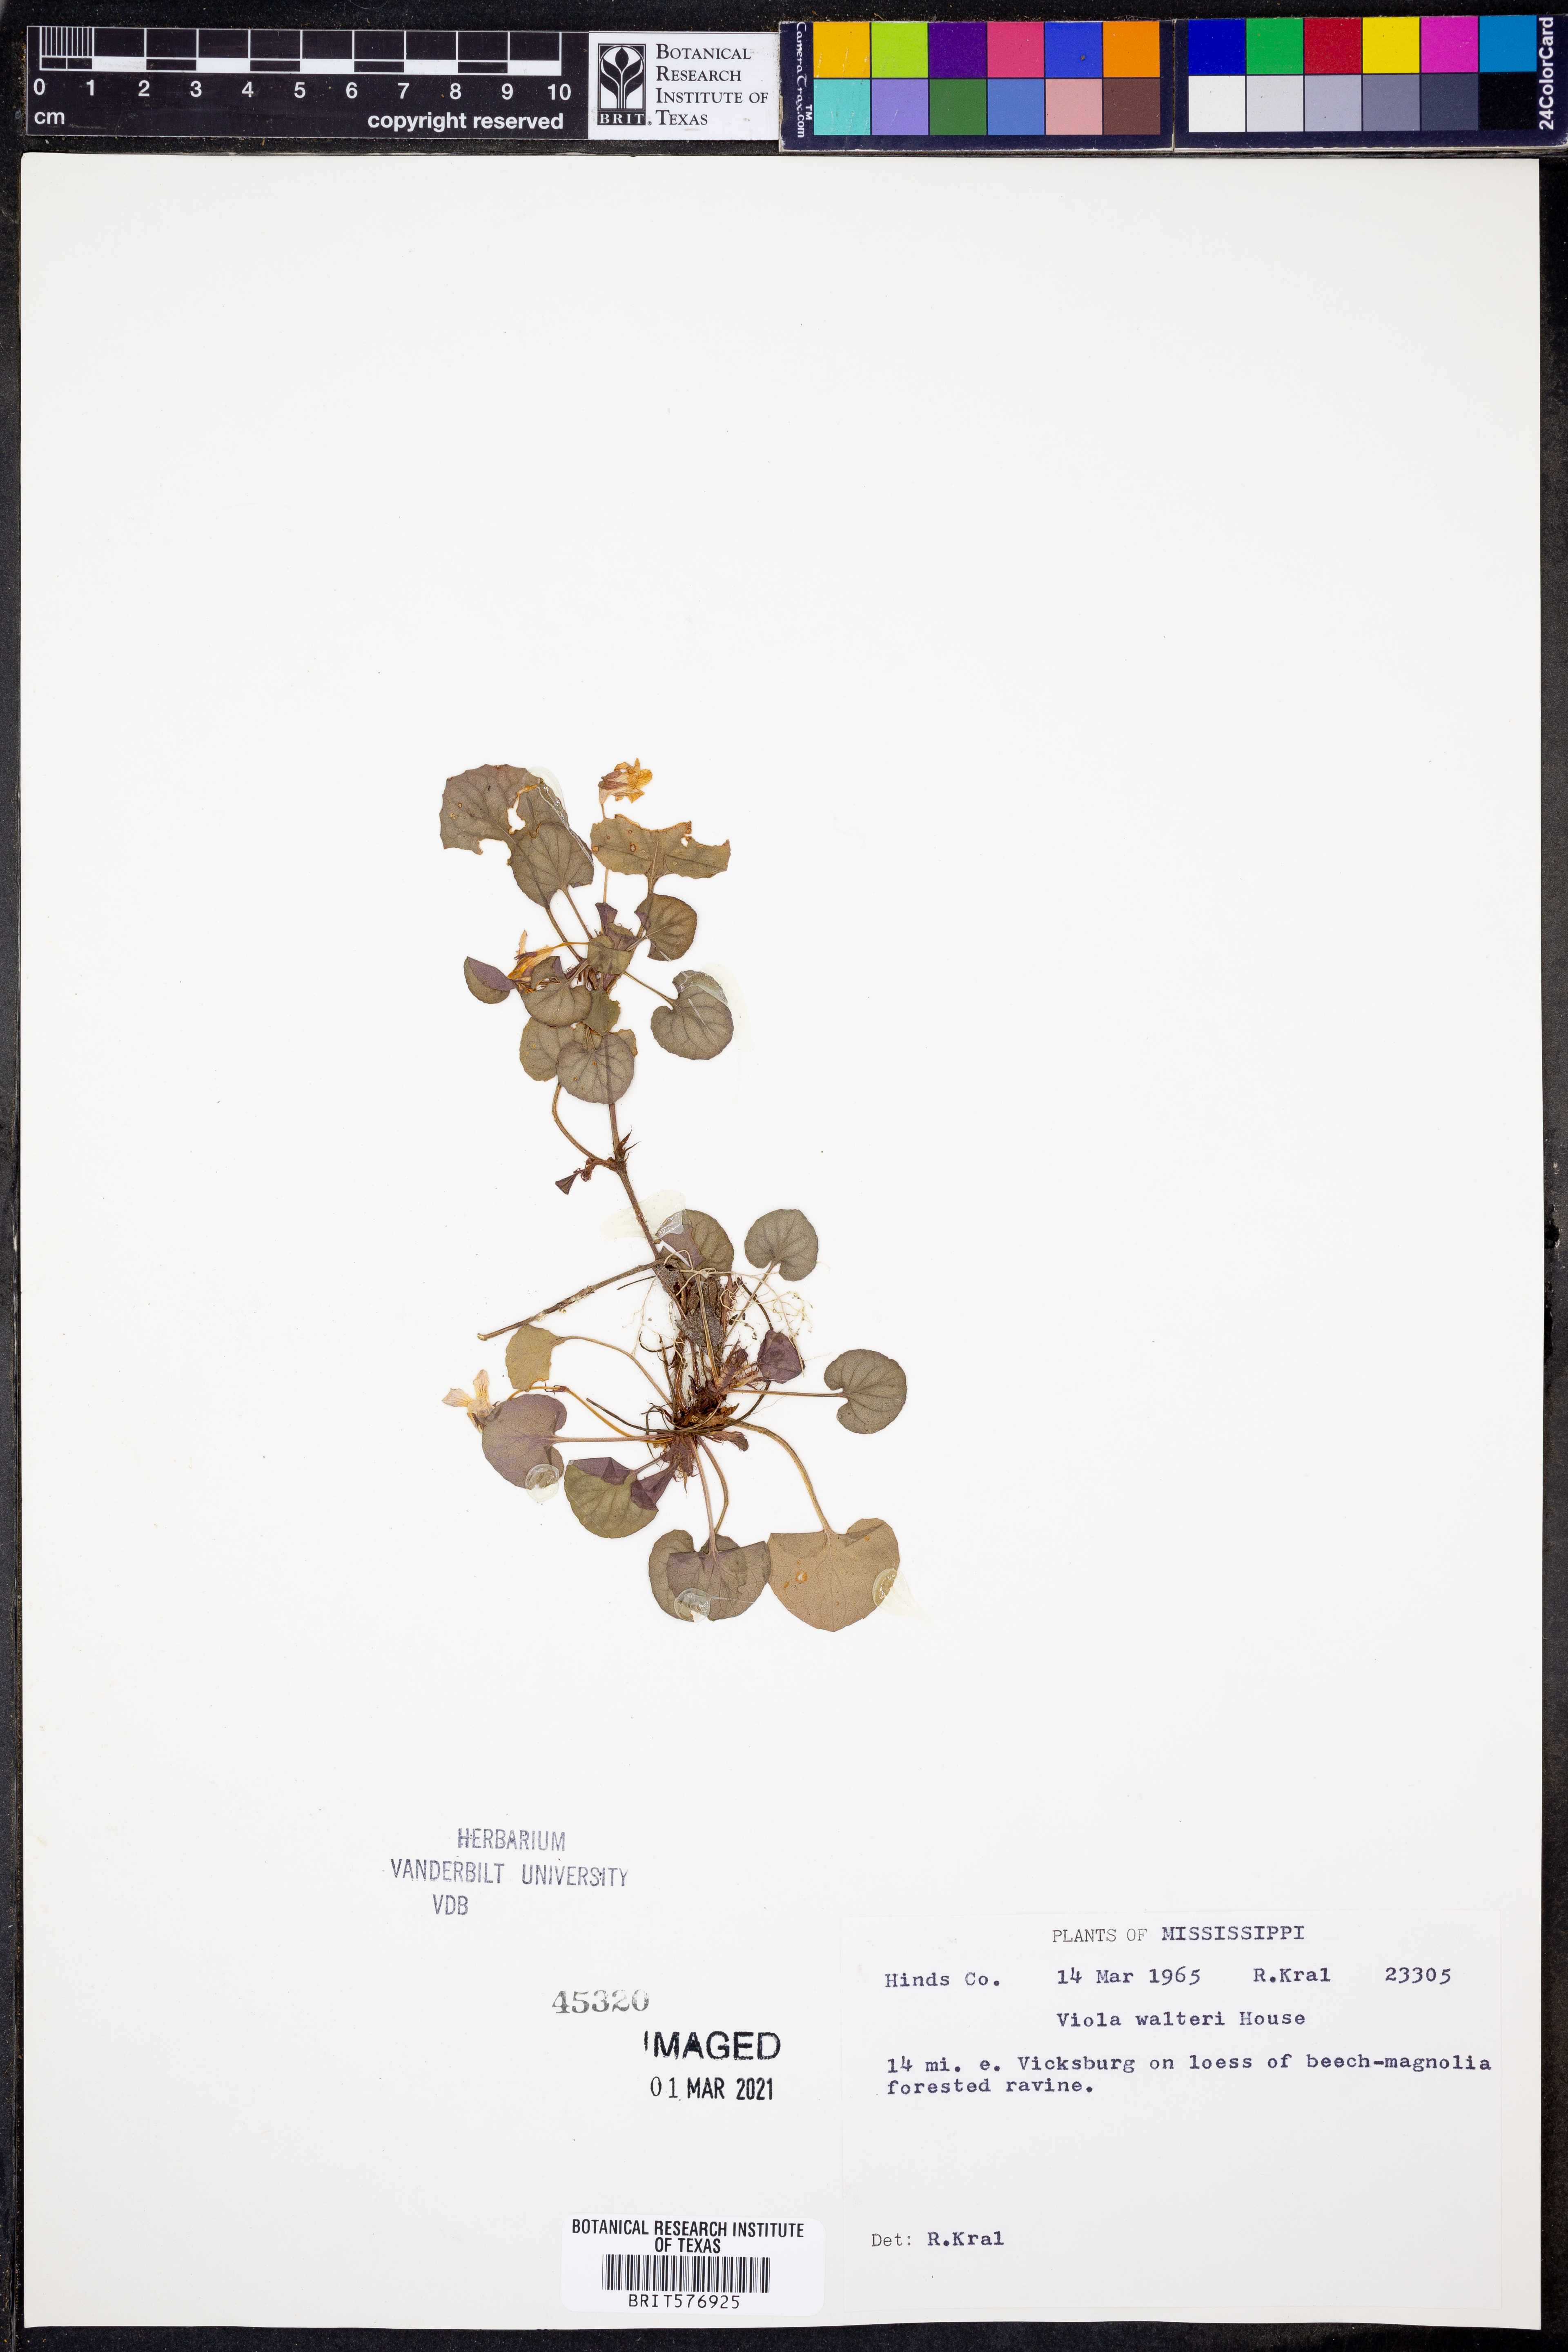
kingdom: Plantae
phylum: Tracheophyta
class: Magnoliopsida
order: Malpighiales
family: Violaceae
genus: Viola
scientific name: Viola walteri
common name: Prostrate southern violet
